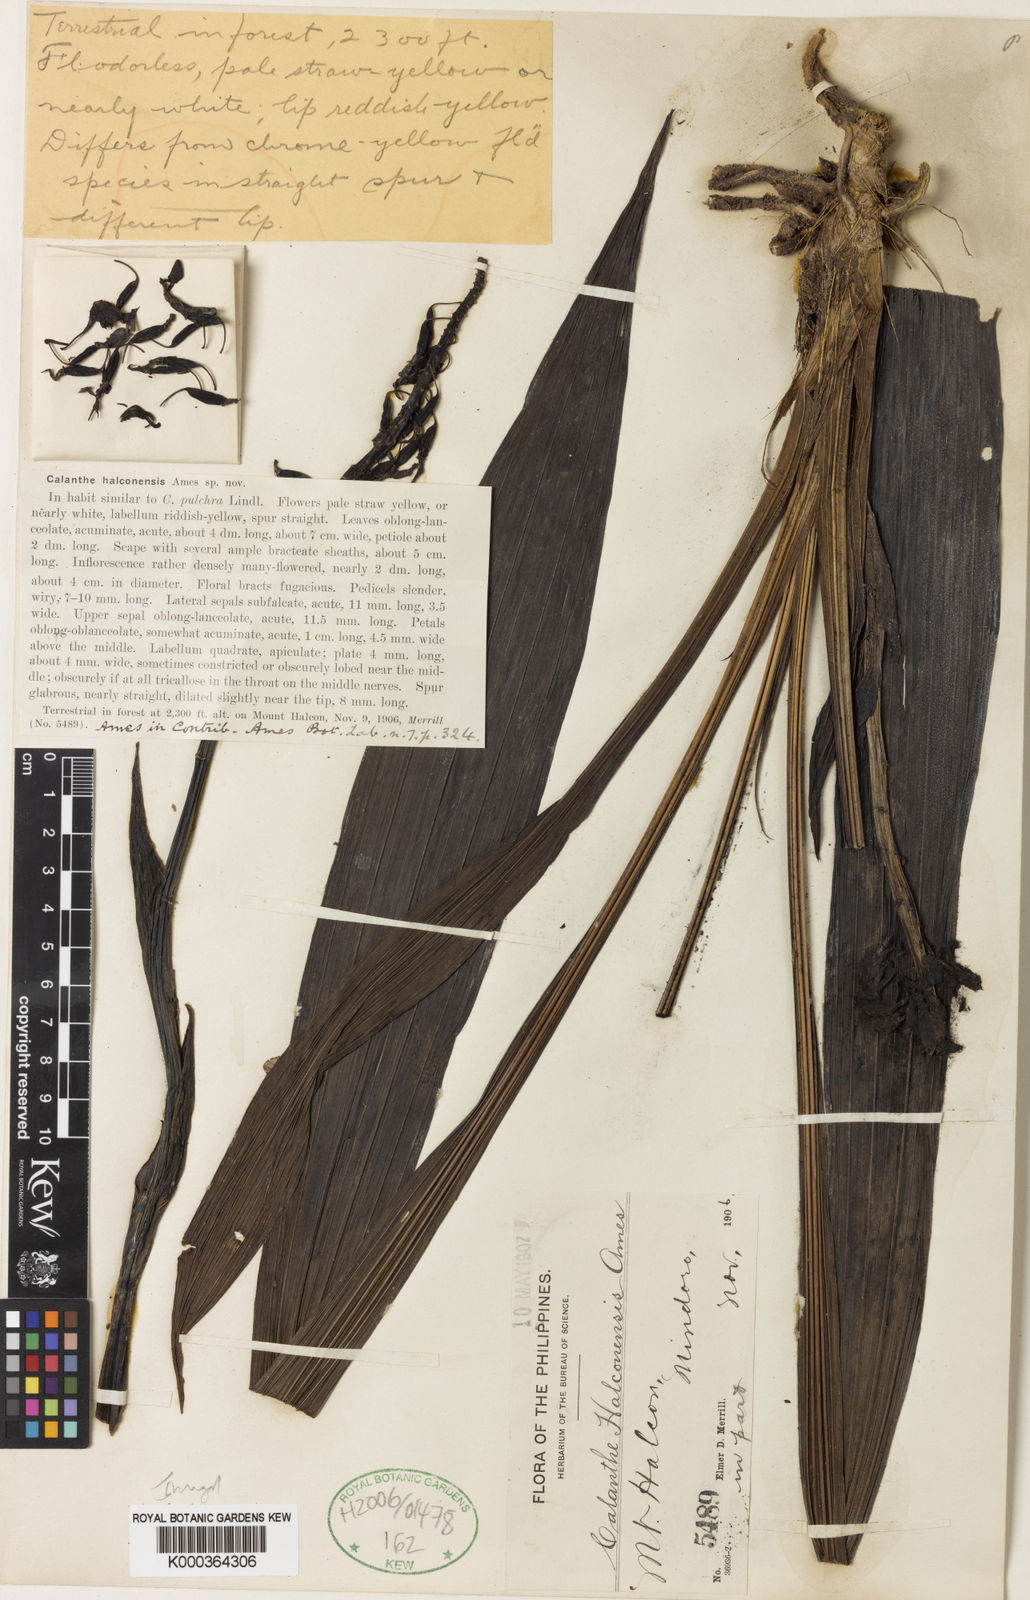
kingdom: Plantae
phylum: Tracheophyta
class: Liliopsida
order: Asparagales
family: Orchidaceae
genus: Calanthe
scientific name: Calanthe halconensis
